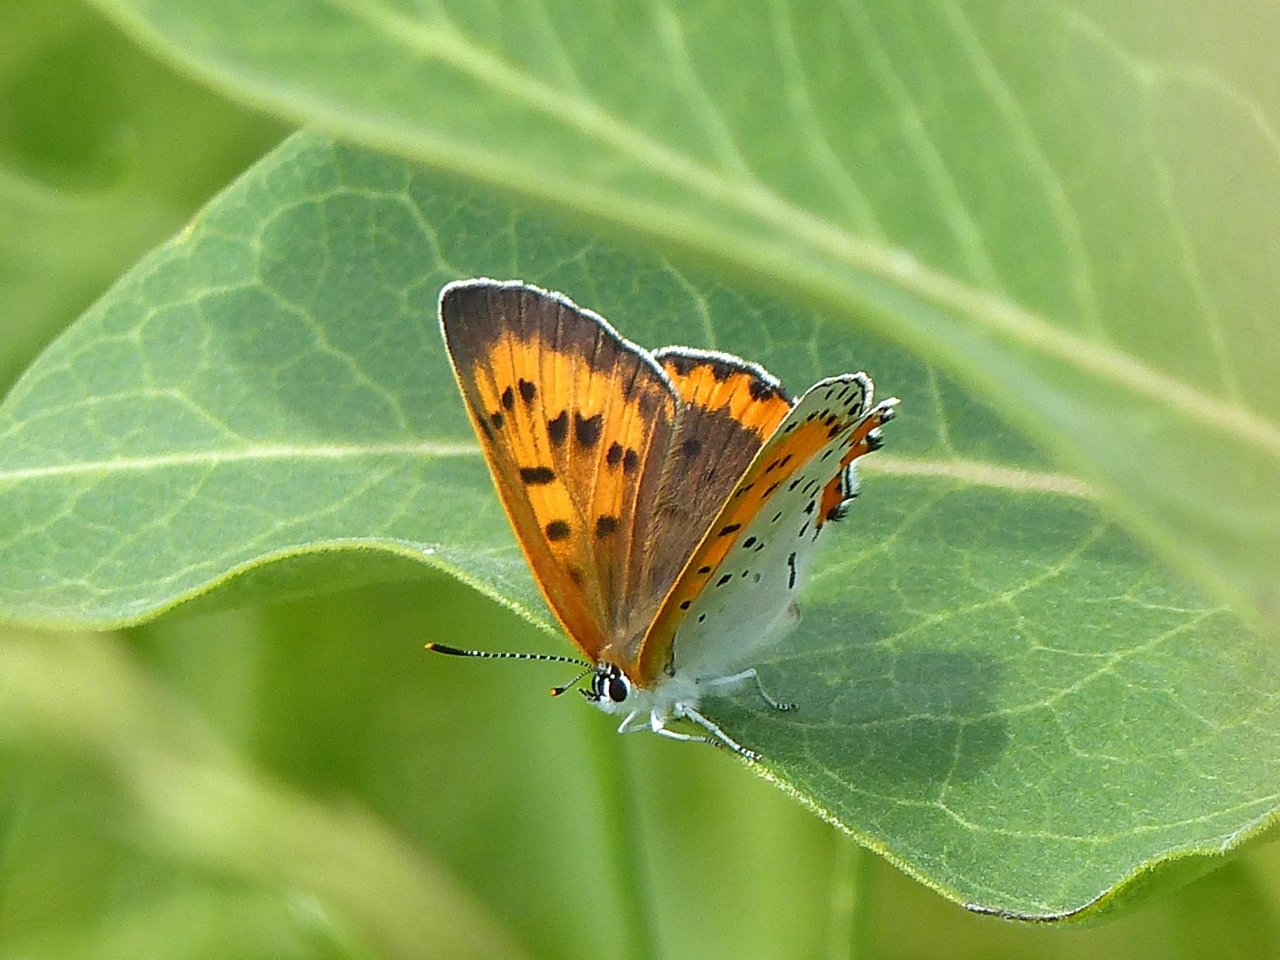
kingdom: Animalia
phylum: Arthropoda
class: Insecta
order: Lepidoptera
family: Sesiidae
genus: Sesia
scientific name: Sesia Lycaena hyllus
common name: Bronze Copper
